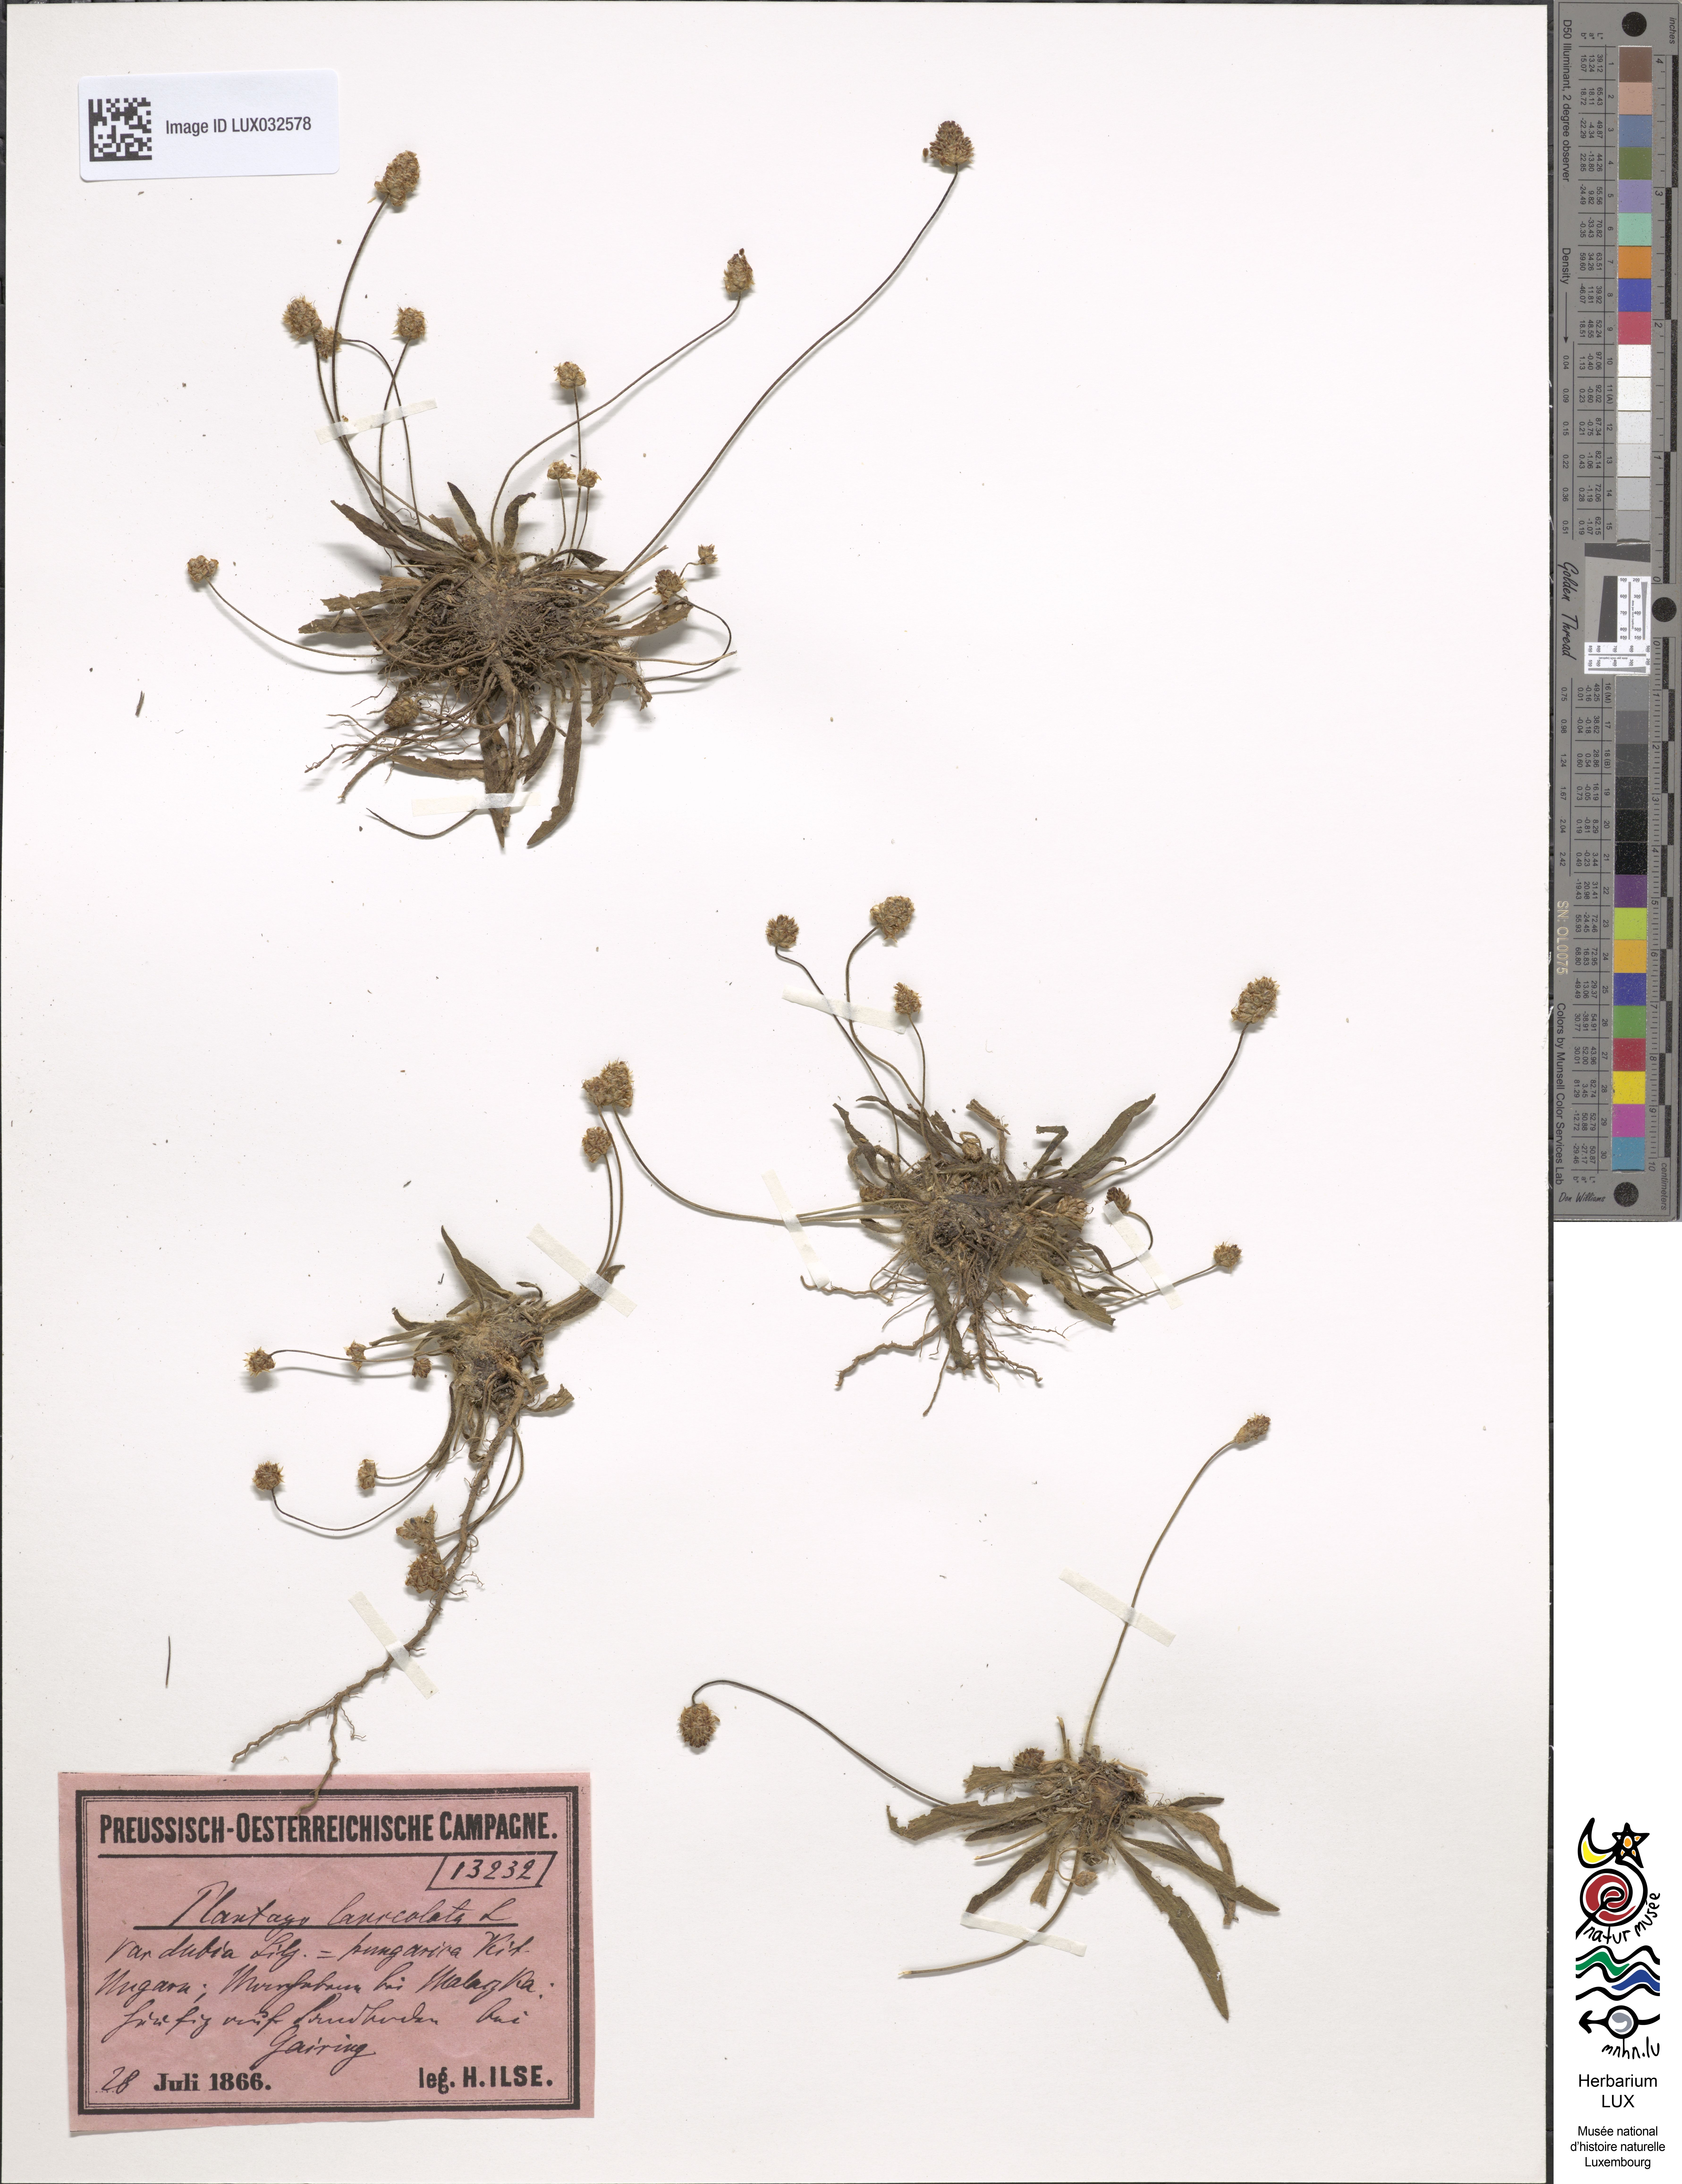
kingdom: Plantae
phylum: Tracheophyta
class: Magnoliopsida
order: Lamiales
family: Plantaginaceae
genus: Plantago
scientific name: Plantago lanceolata
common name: Ribwort plantain
